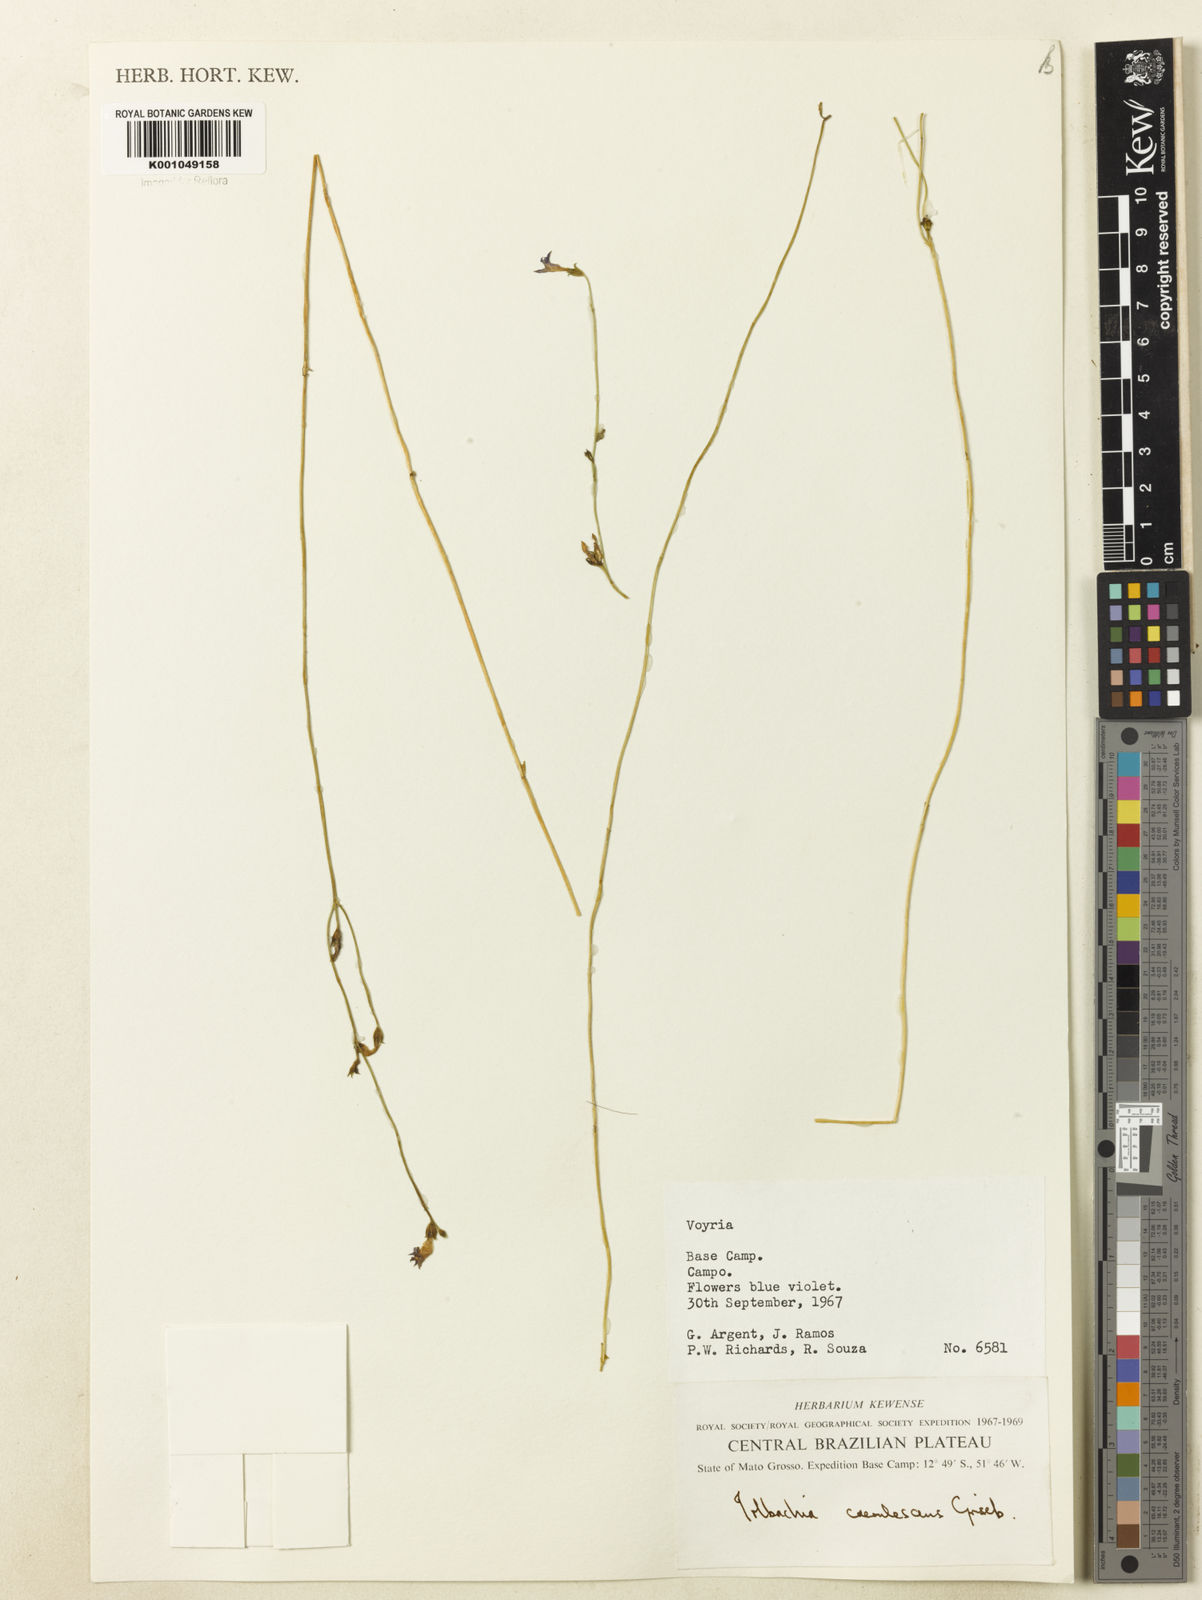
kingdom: Plantae
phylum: Tracheophyta
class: Magnoliopsida
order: Gentianales
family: Gentianaceae
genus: Tetrapollinia
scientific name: Tetrapollinia caerulescens
